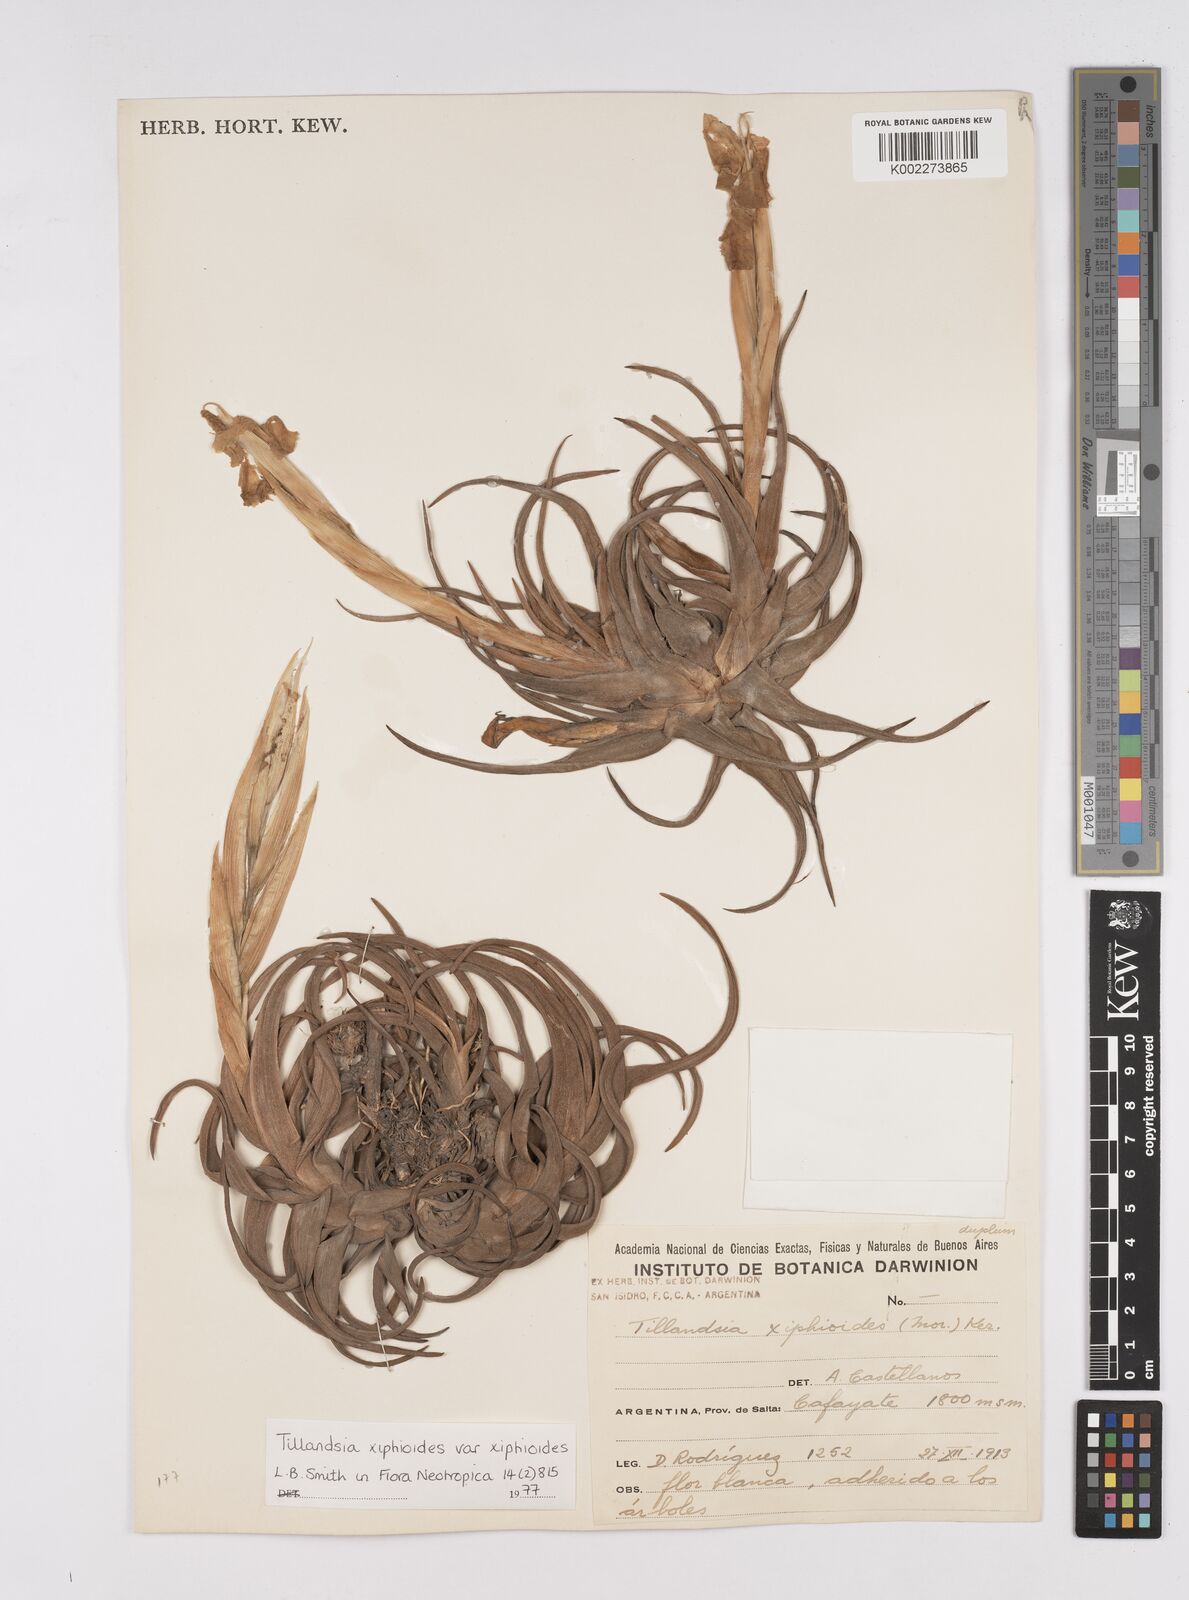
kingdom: Plantae
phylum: Tracheophyta
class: Liliopsida
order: Poales
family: Bromeliaceae
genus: Tillandsia
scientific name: Tillandsia xiphioides
